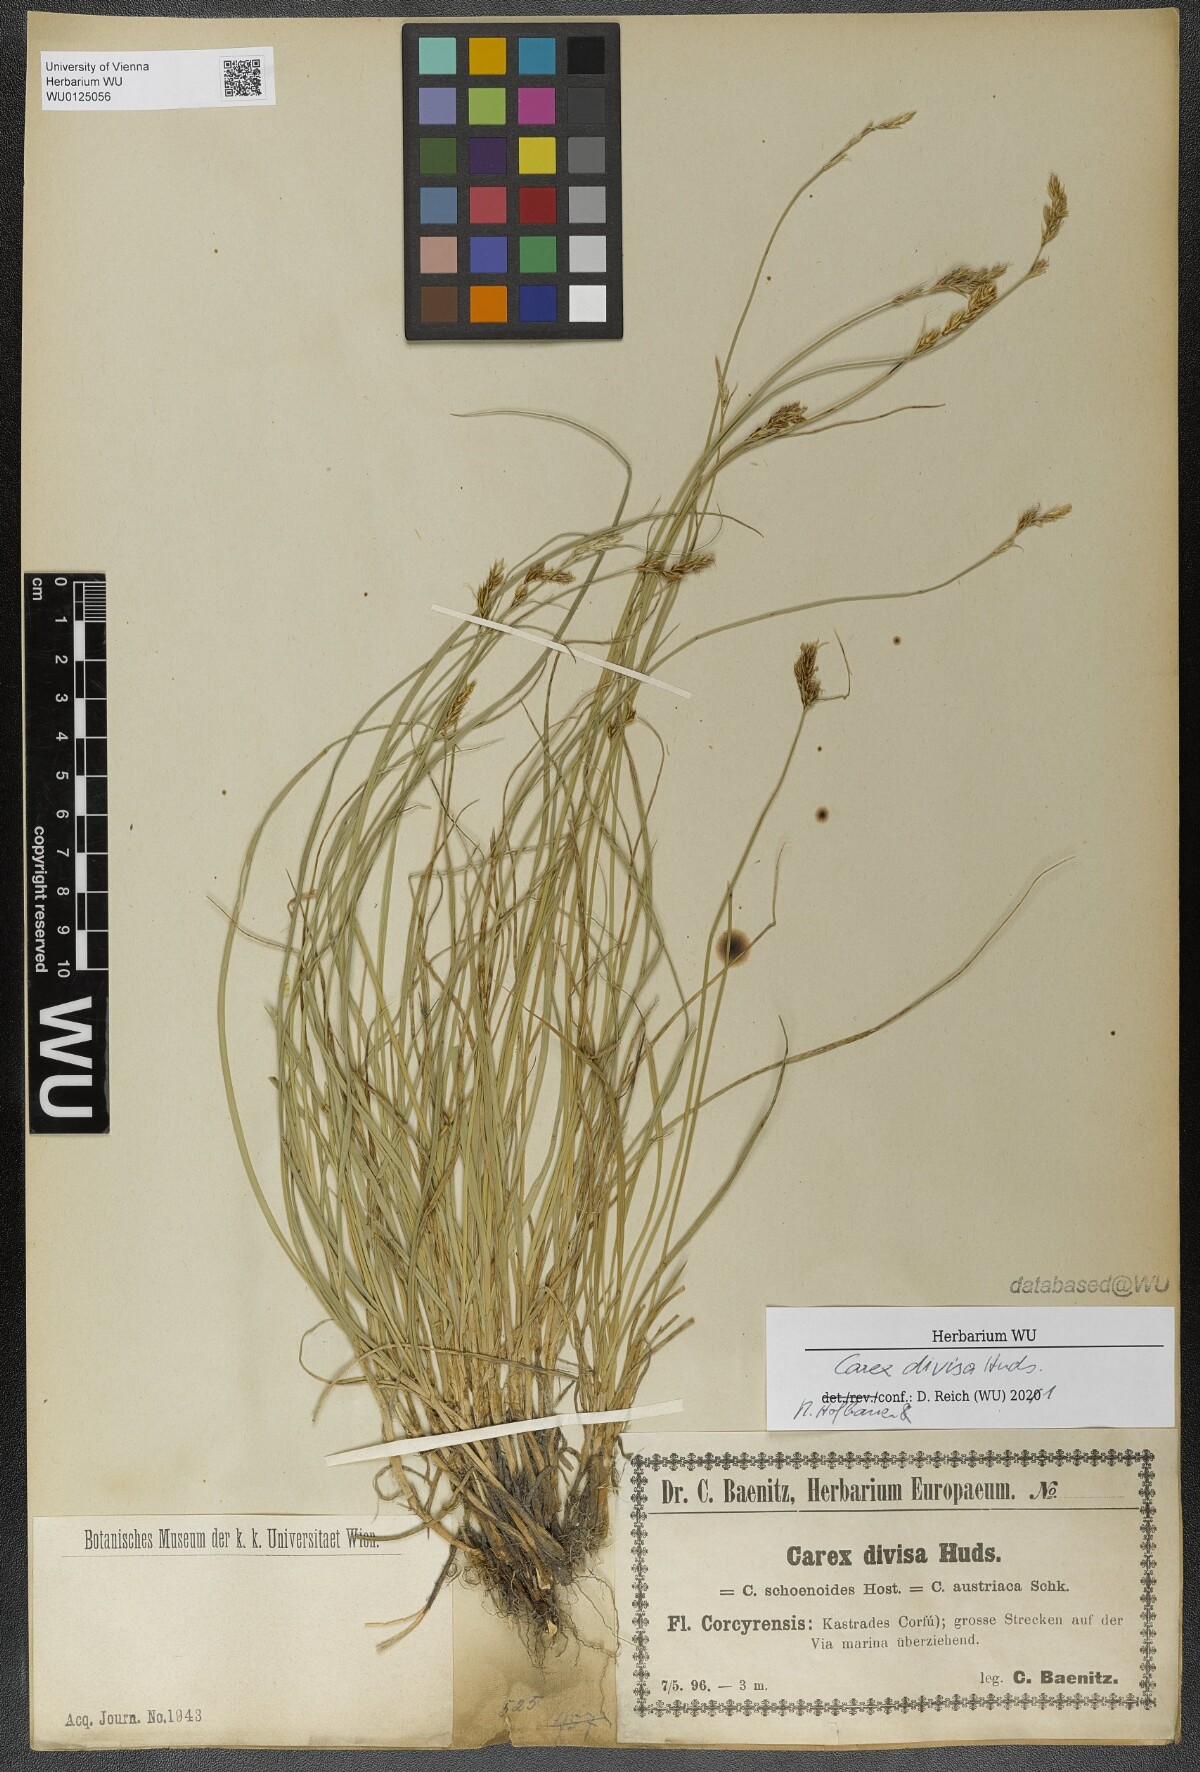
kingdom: Plantae
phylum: Tracheophyta
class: Liliopsida
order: Poales
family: Cyperaceae
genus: Carex
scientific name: Carex divisa
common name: Divided sedge
